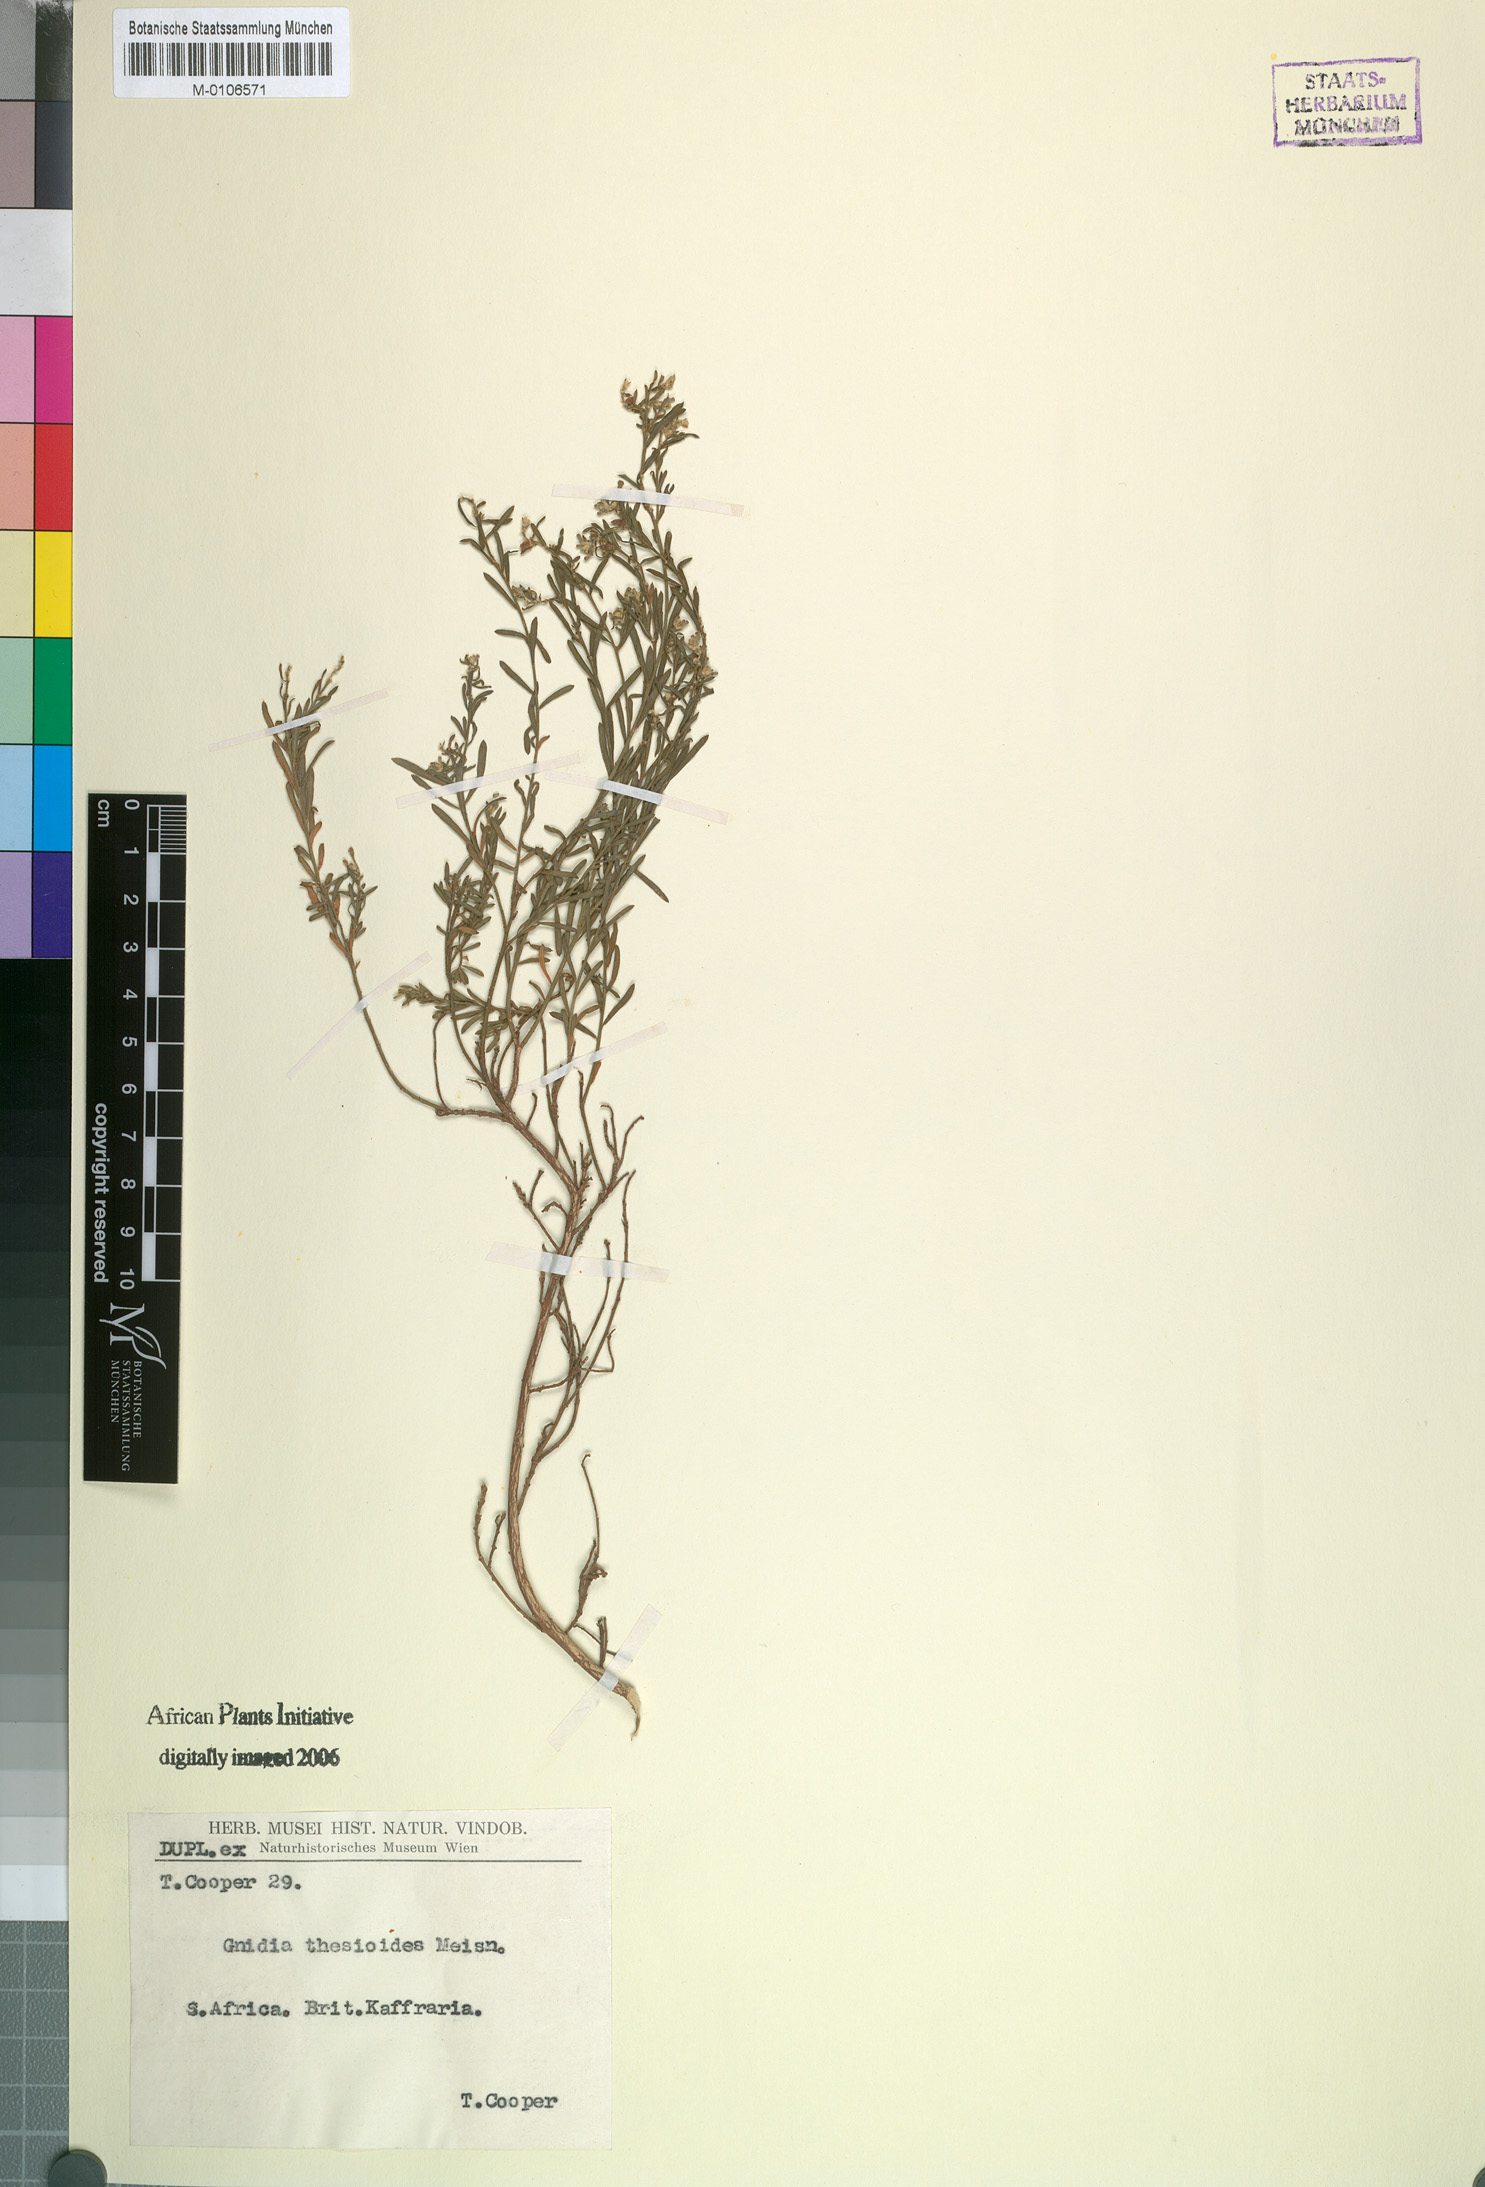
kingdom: Plantae
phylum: Tracheophyta
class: Magnoliopsida
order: Malvales
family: Thymelaeaceae
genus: Gnidia
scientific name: Gnidia thesioides
